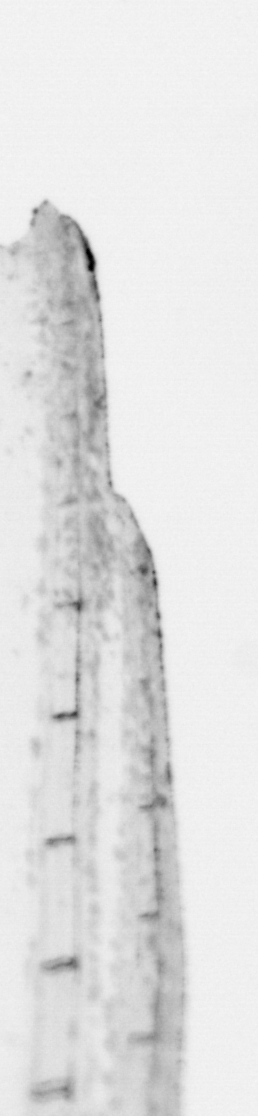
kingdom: Animalia
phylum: Chordata
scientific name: Chordata
